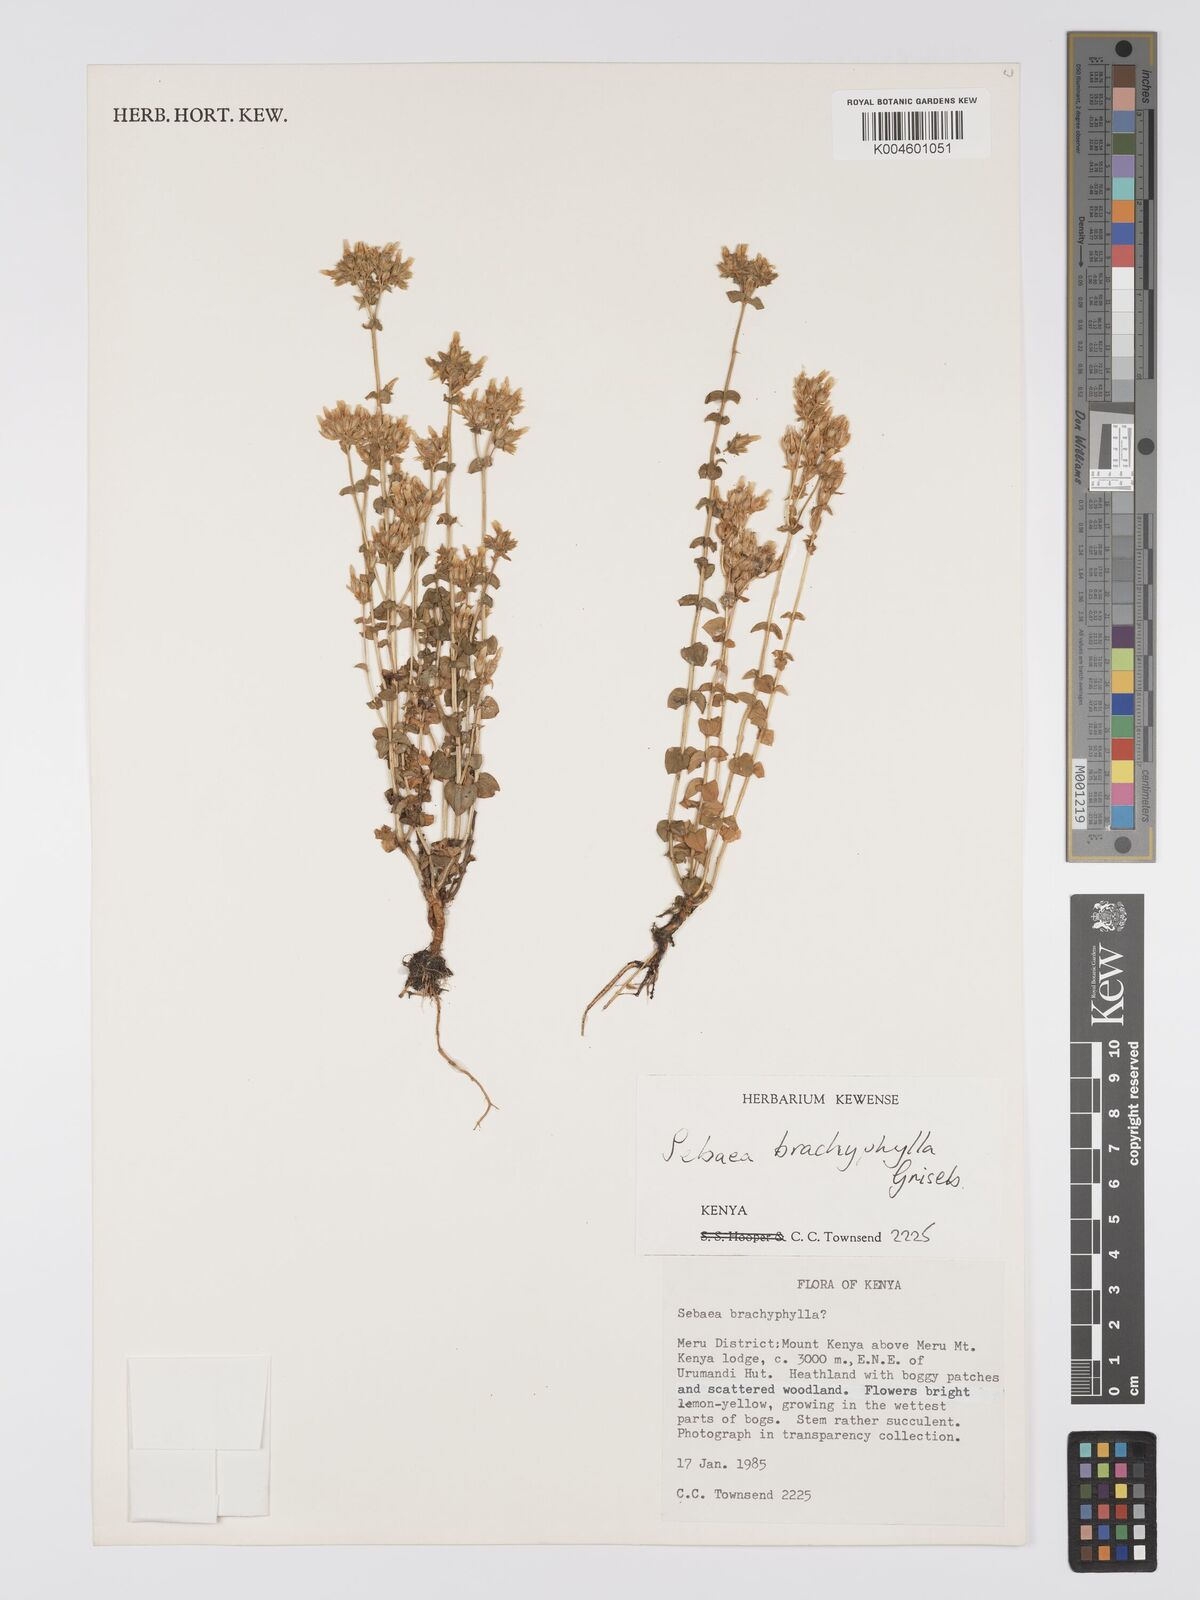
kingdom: Plantae
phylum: Tracheophyta
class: Magnoliopsida
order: Gentianales
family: Gentianaceae
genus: Sebaea
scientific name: Sebaea brachyphylla
